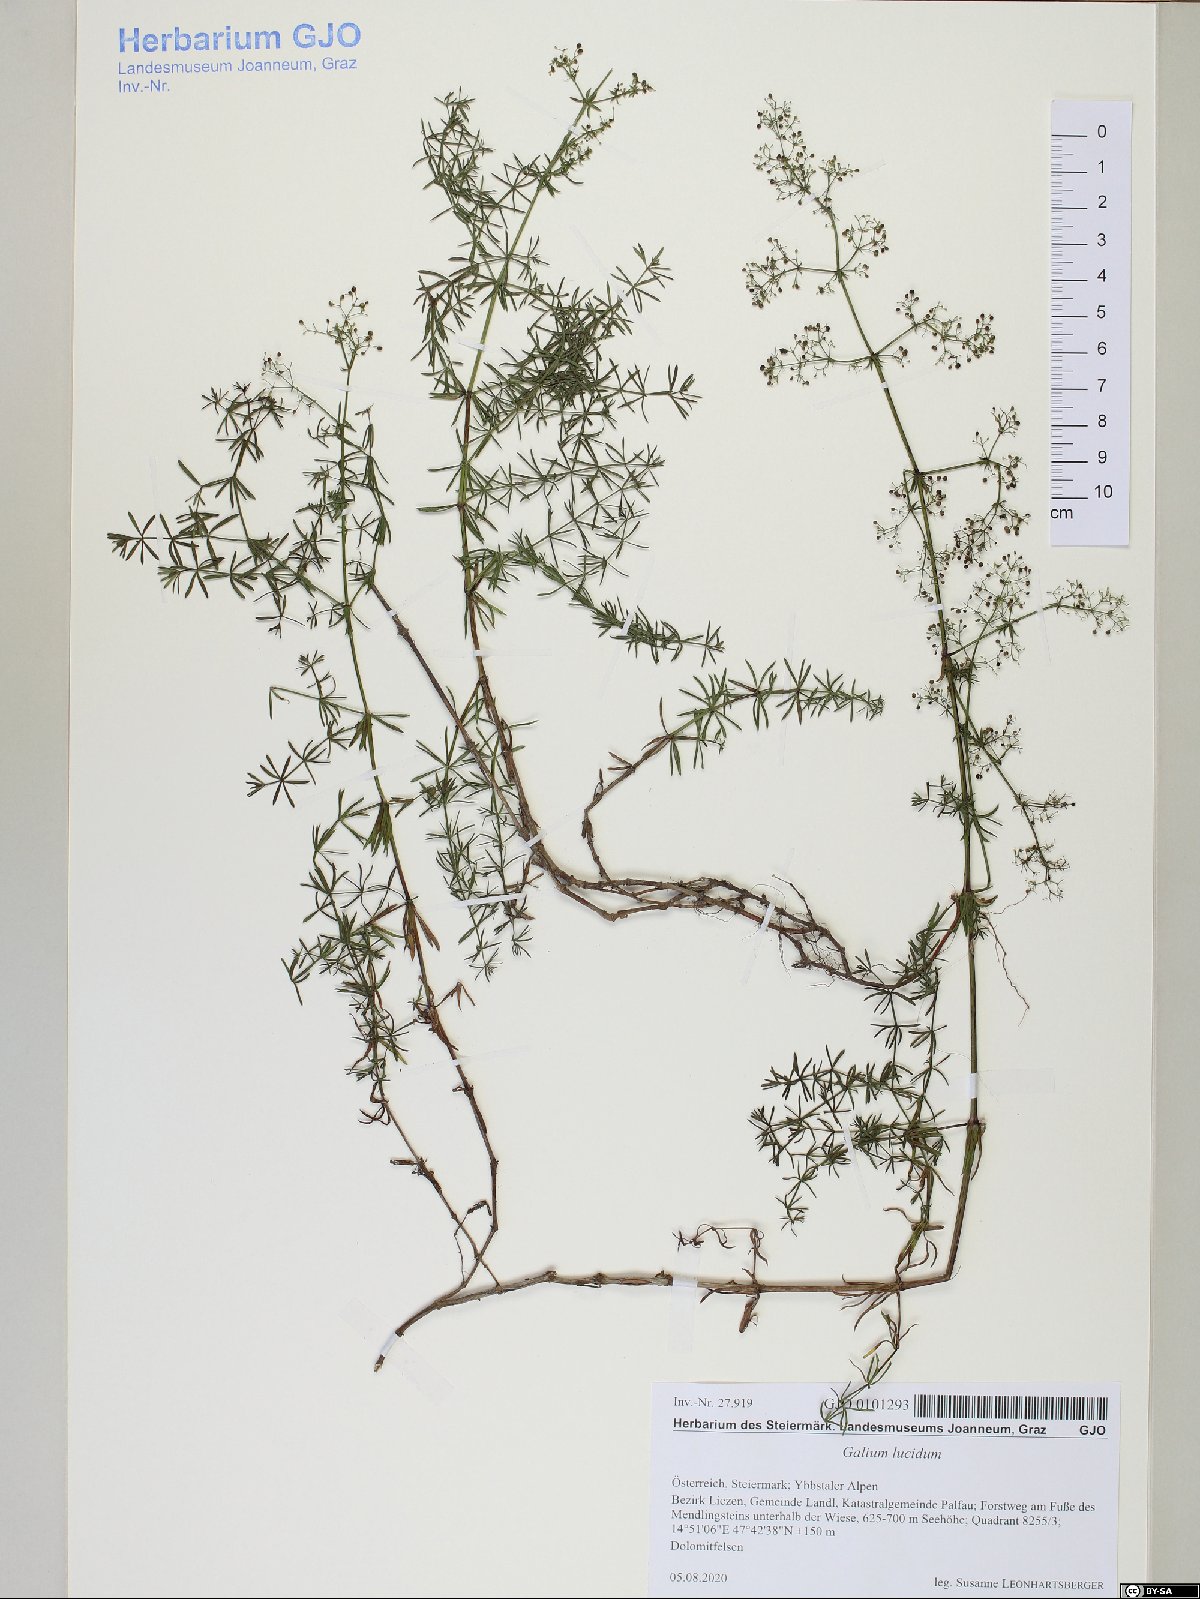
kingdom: Plantae
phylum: Tracheophyta
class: Magnoliopsida
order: Gentianales
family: Rubiaceae
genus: Galium
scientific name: Galium lucidum
